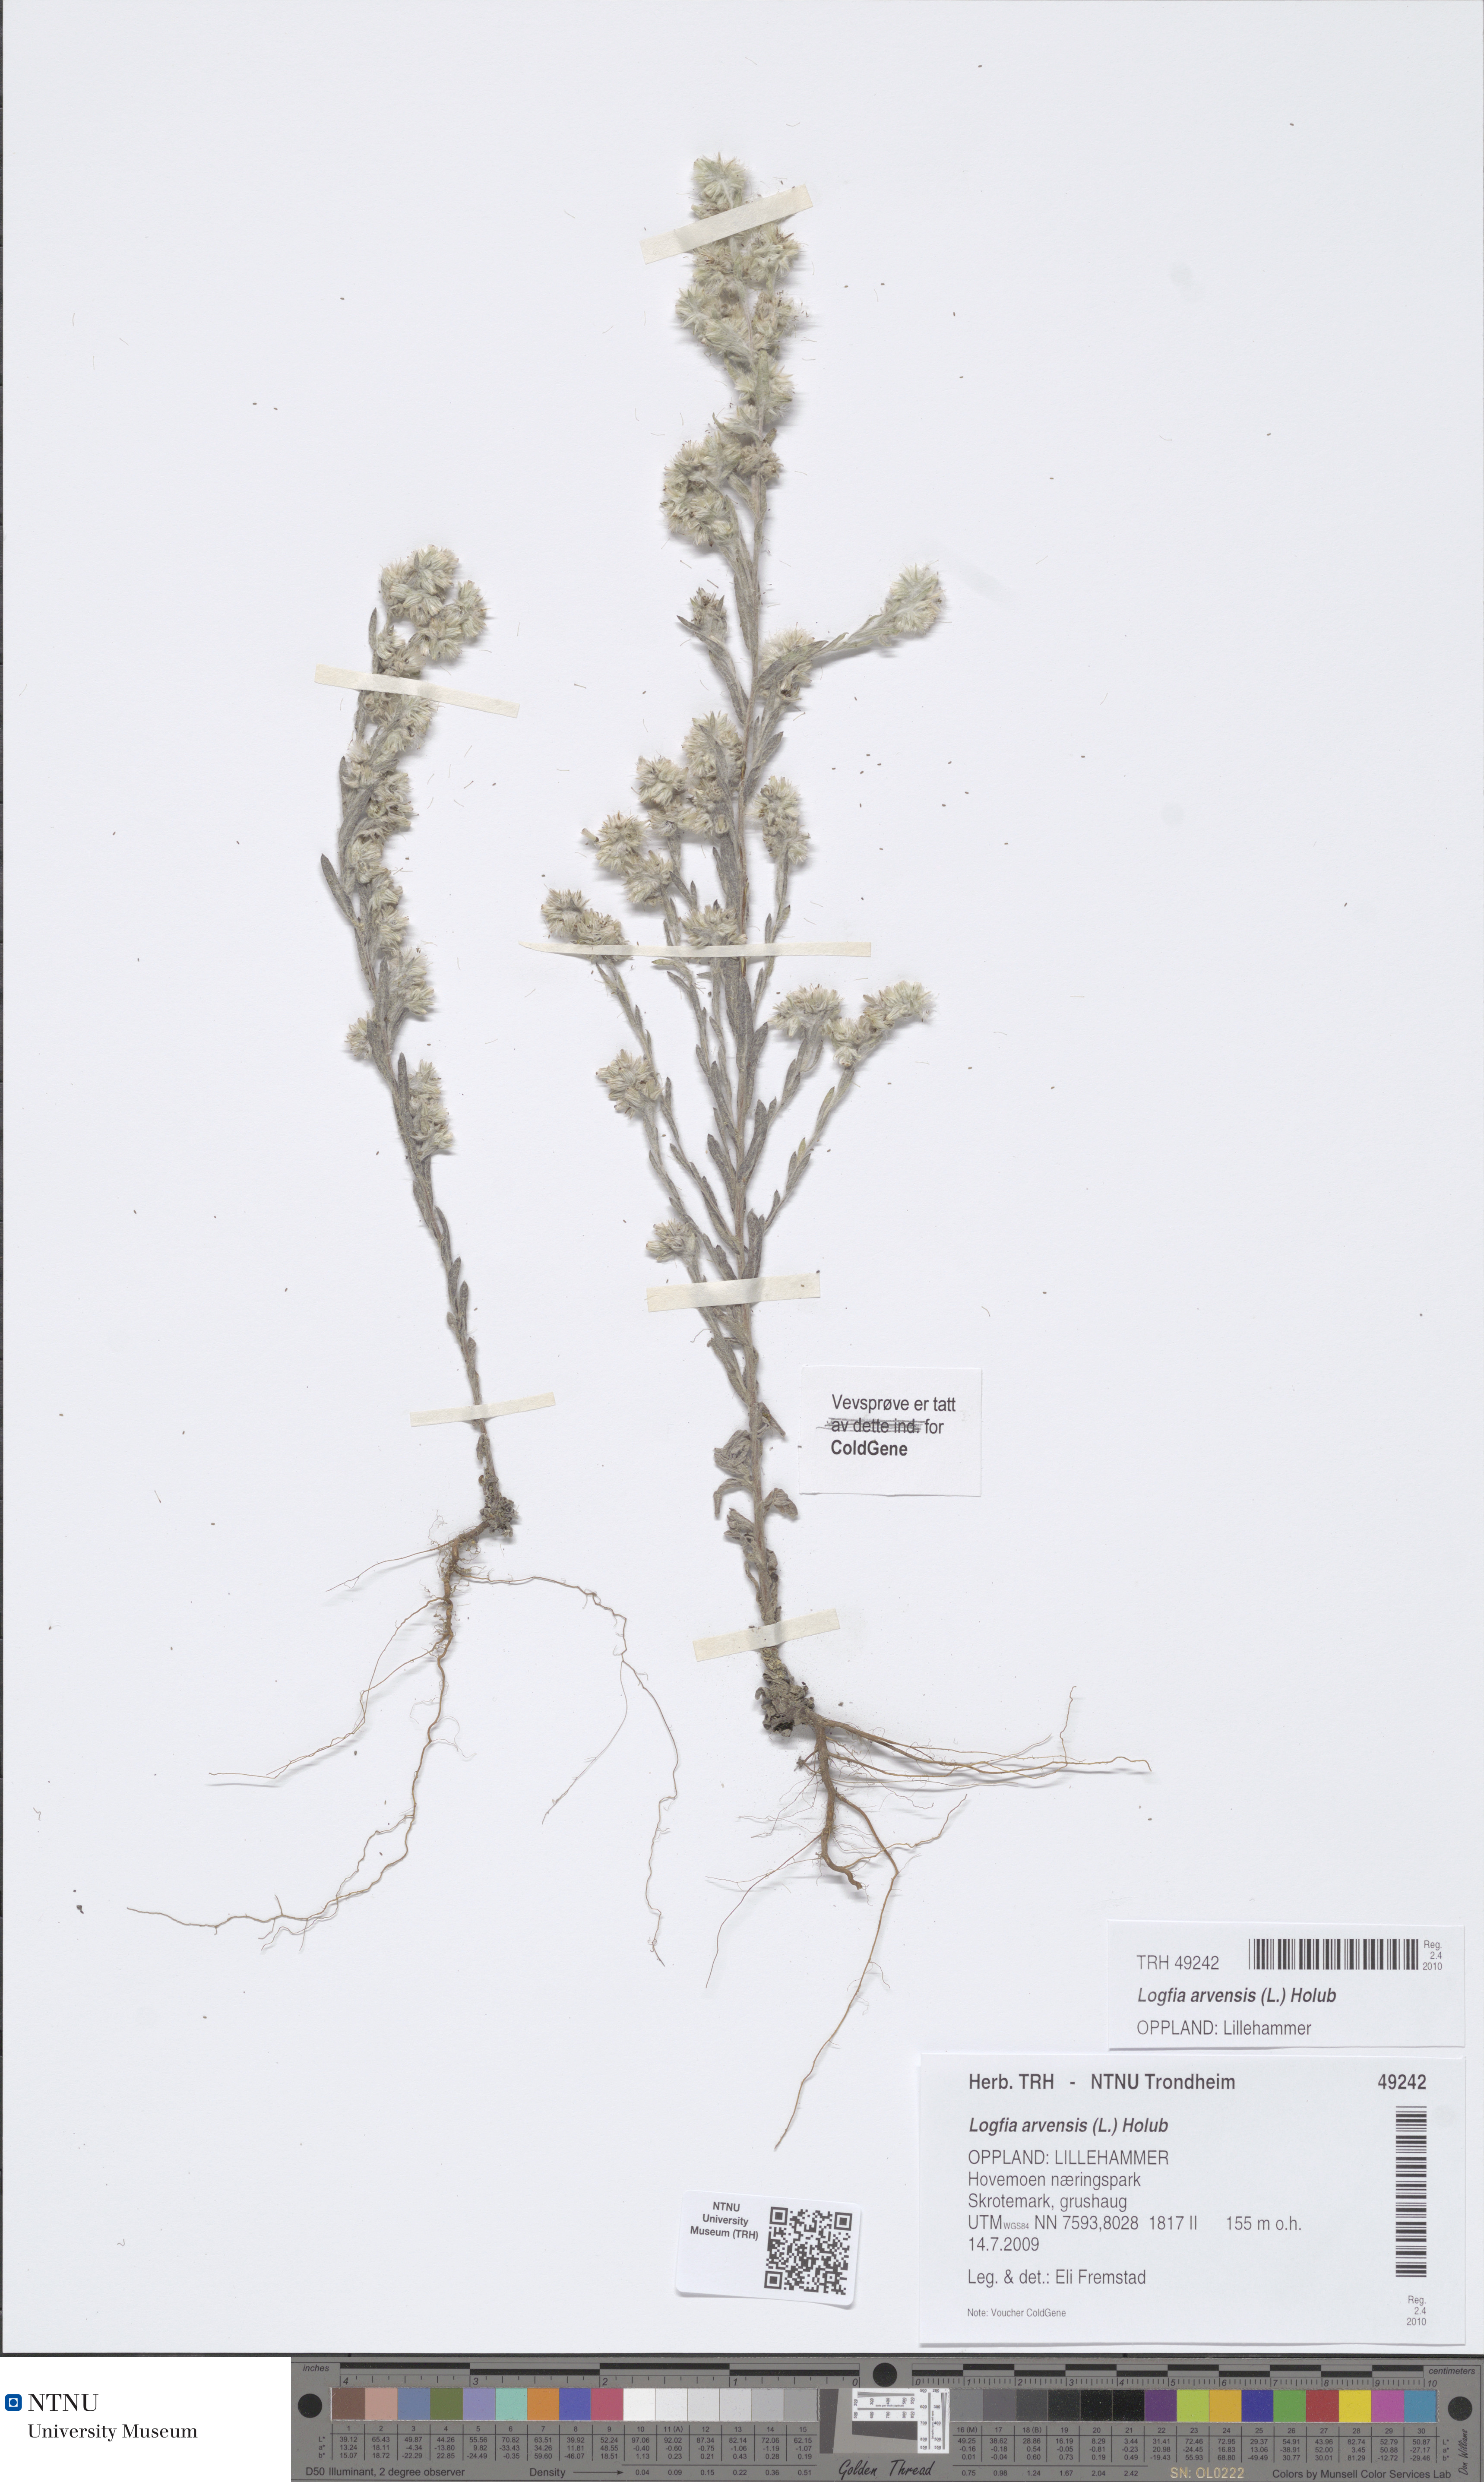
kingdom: Plantae
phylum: Tracheophyta
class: Magnoliopsida
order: Asterales
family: Asteraceae
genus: Filago
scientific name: Filago arvensis
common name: Field cudweed
